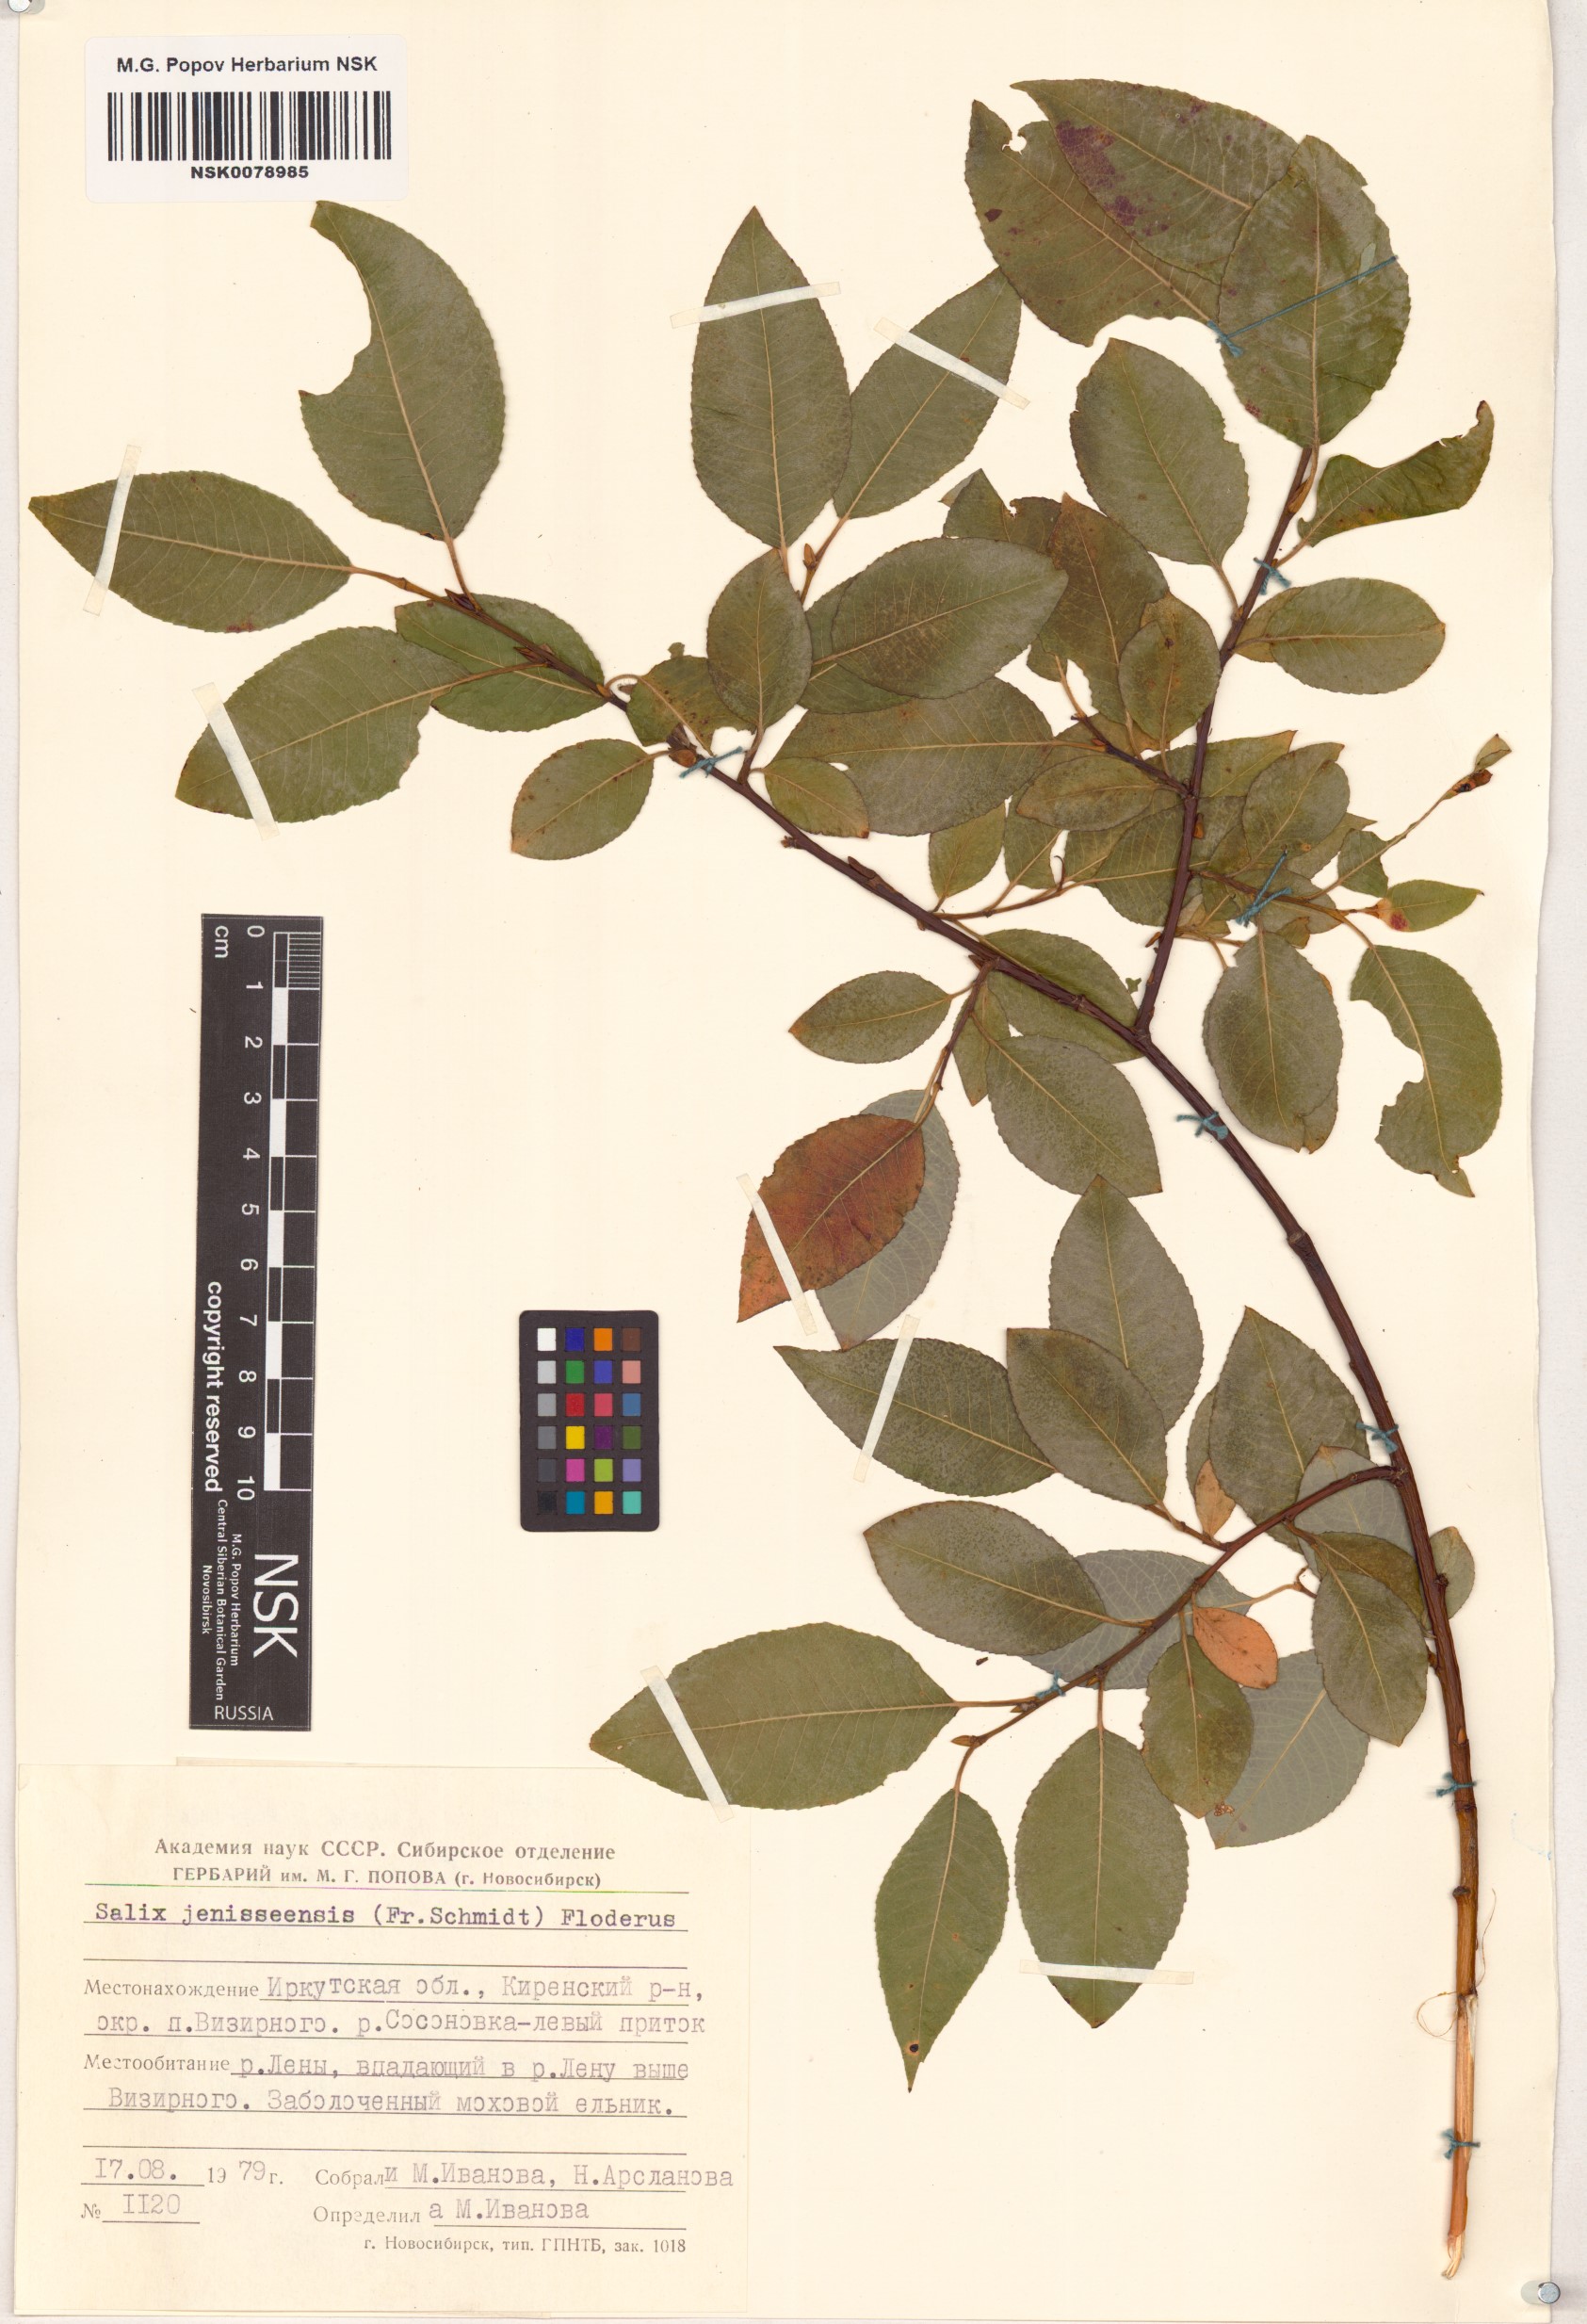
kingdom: Plantae
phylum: Tracheophyta
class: Magnoliopsida
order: Malpighiales
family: Salicaceae
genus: Salix
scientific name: Salix jenisseensis
